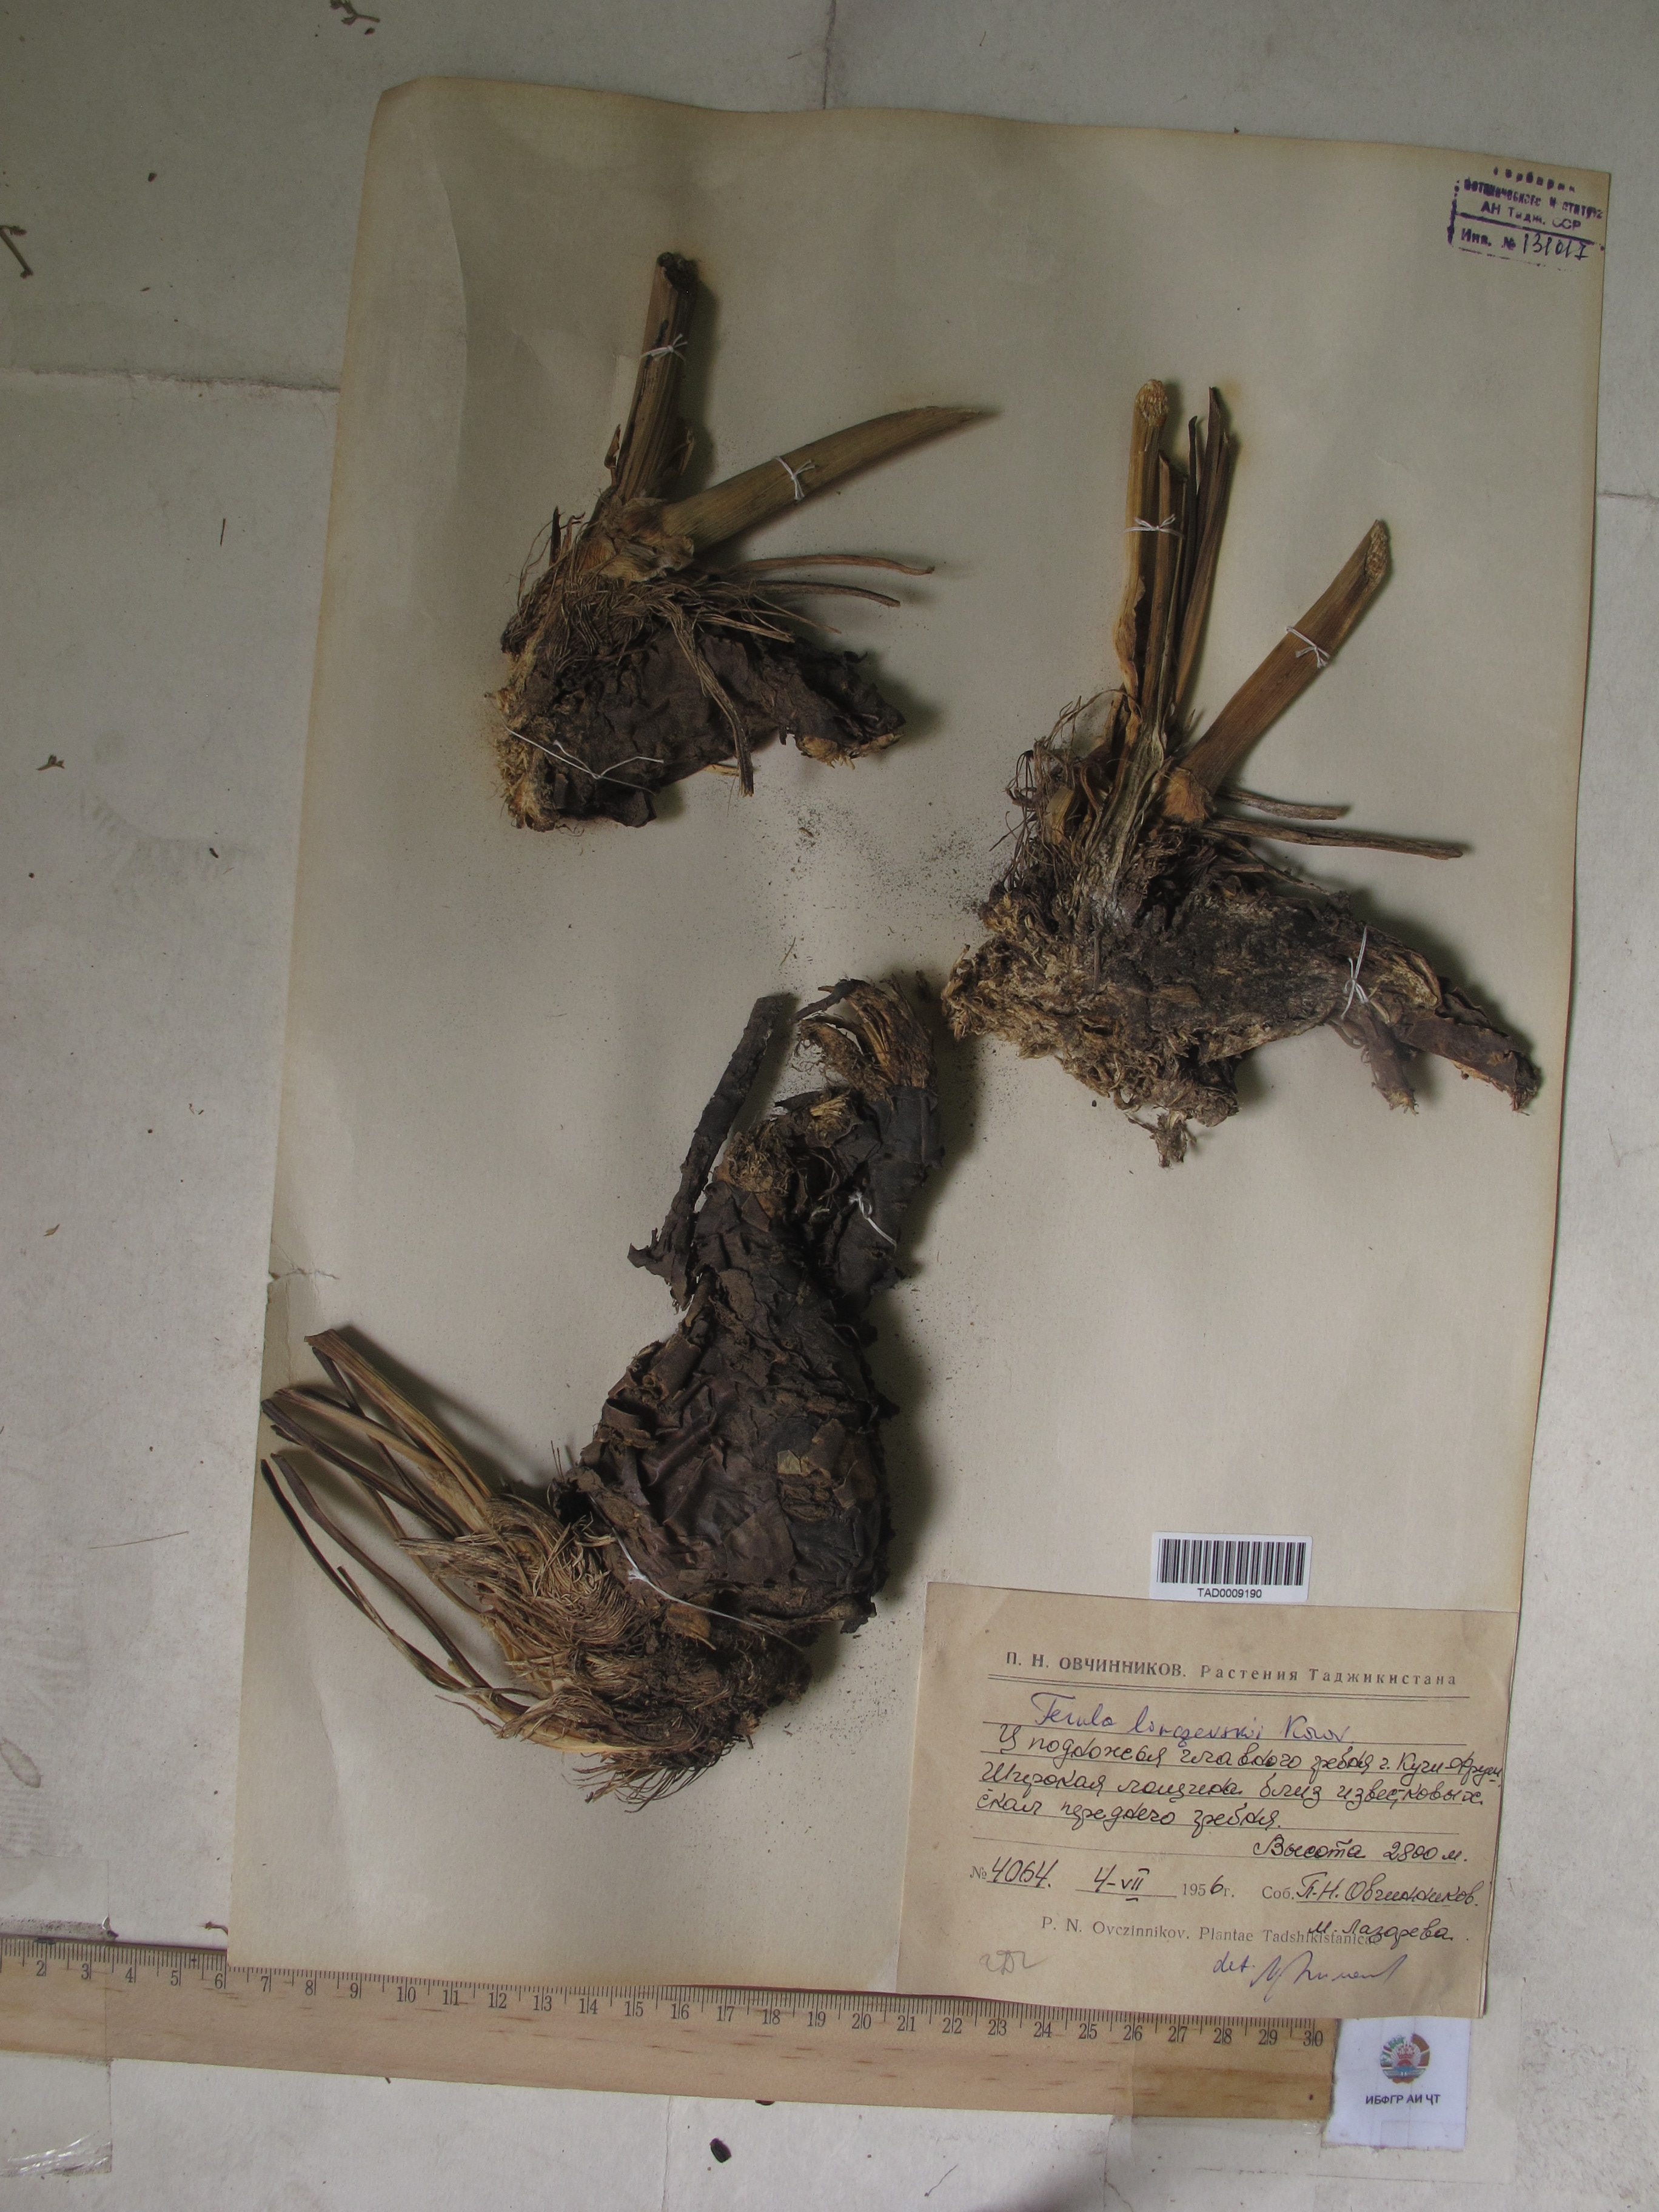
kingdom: Plantae
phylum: Tracheophyta
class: Magnoliopsida
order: Apiales
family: Apiaceae
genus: Ferula
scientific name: Ferula linczevskii
